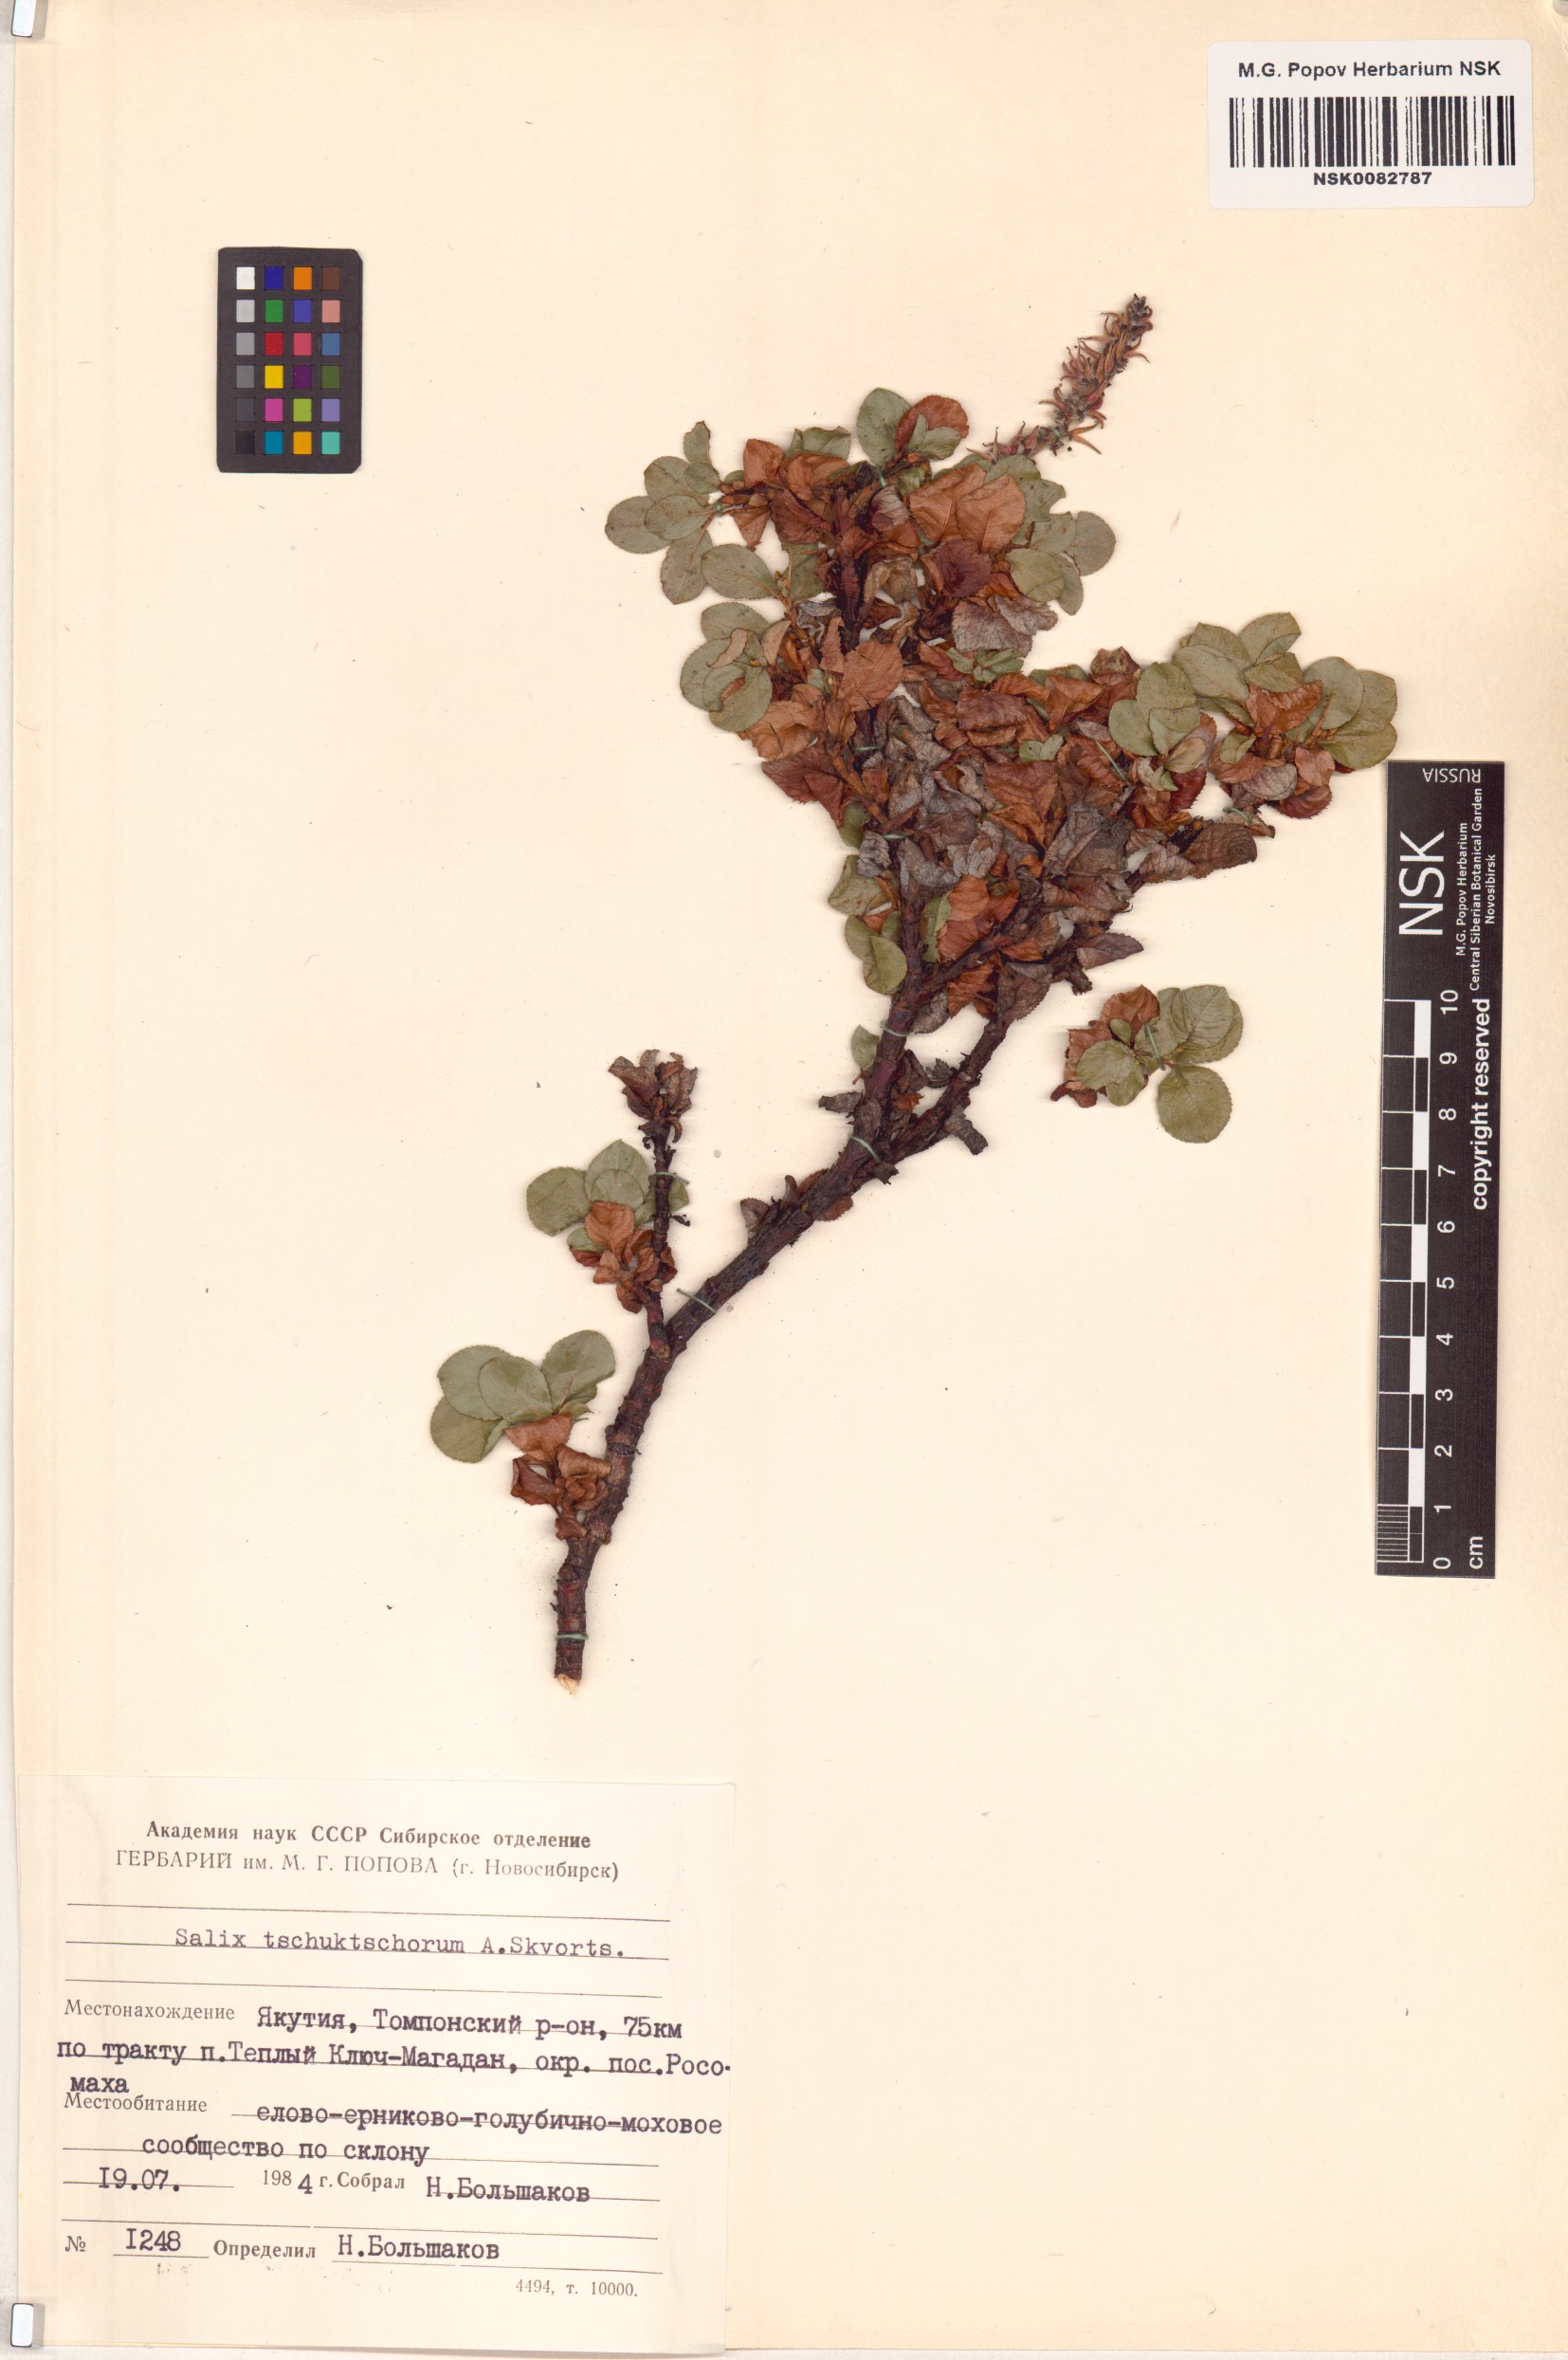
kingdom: Plantae
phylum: Tracheophyta
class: Magnoliopsida
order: Malpighiales
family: Salicaceae
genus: Salix
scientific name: Salix tschuktschorum
